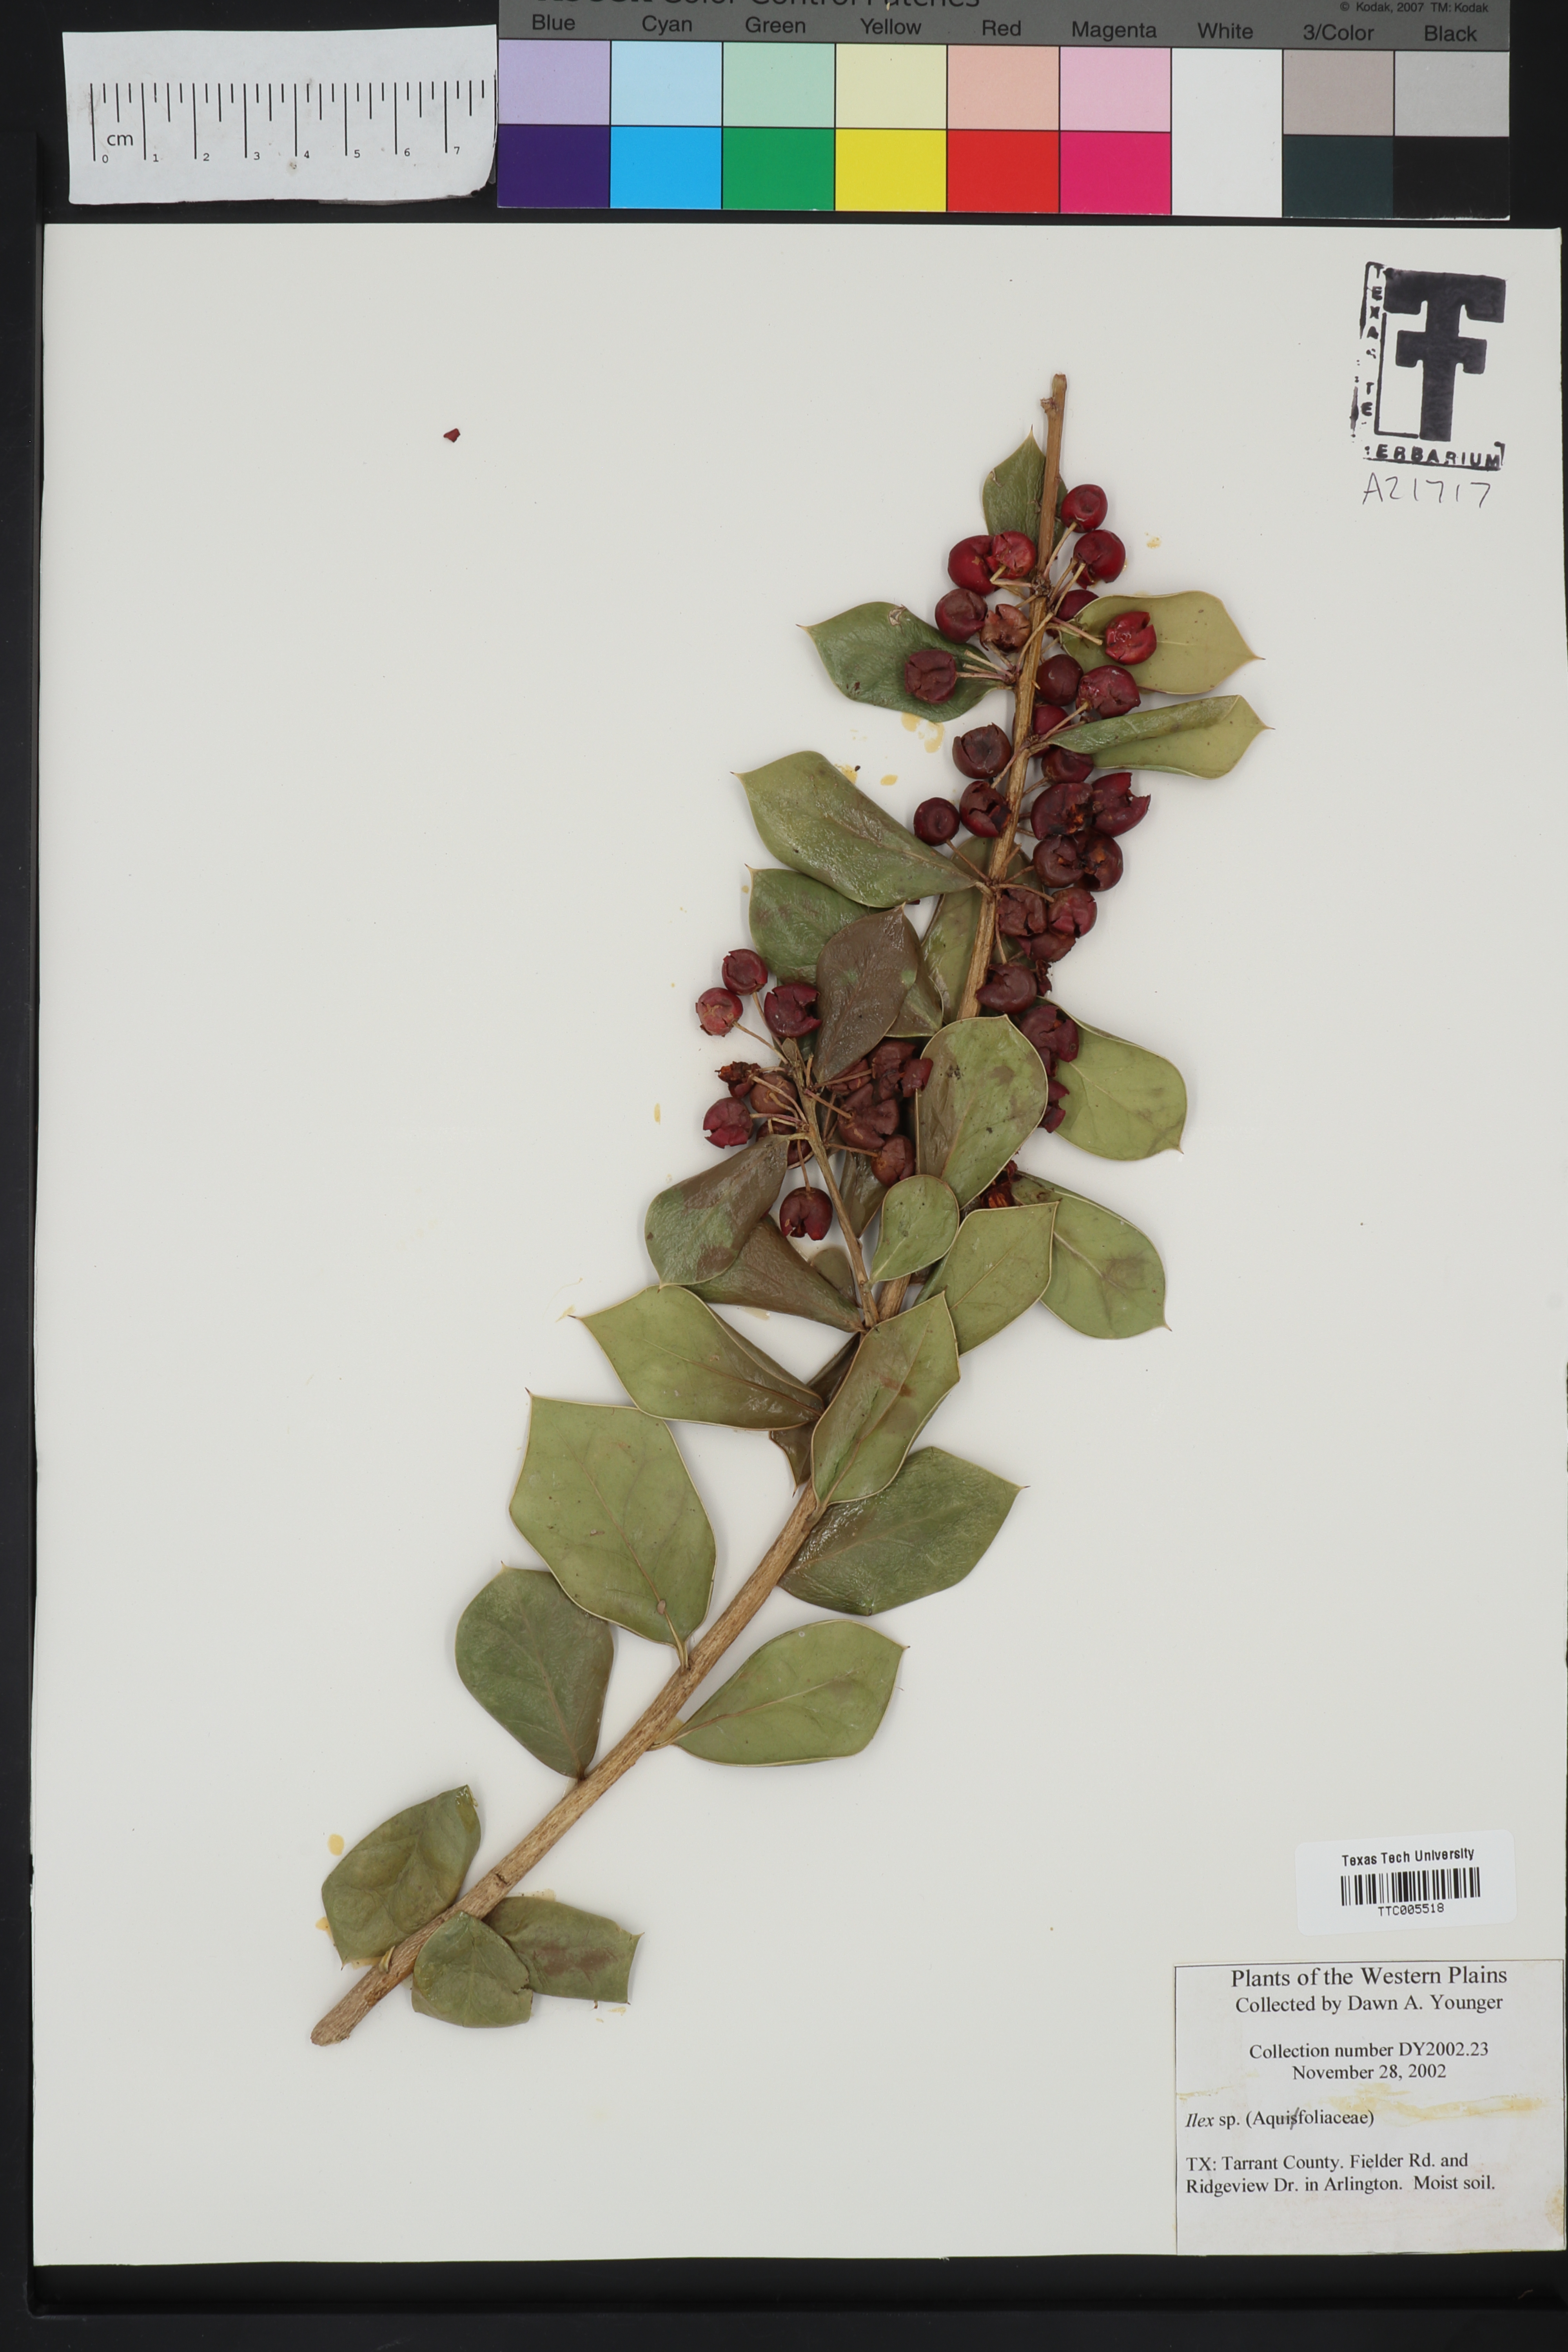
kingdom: Plantae
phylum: Tracheophyta
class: Magnoliopsida
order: Aquifoliales
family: Aquifoliaceae
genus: Ilex
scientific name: Ilex
